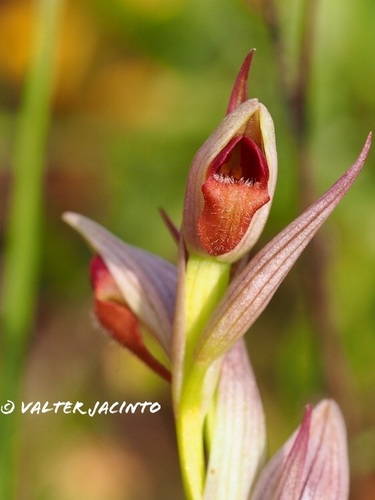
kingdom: Plantae
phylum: Tracheophyta
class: Liliopsida
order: Asparagales
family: Orchidaceae
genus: Serapias
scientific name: Serapias parviflora
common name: Small-flowered tongue-orchid
